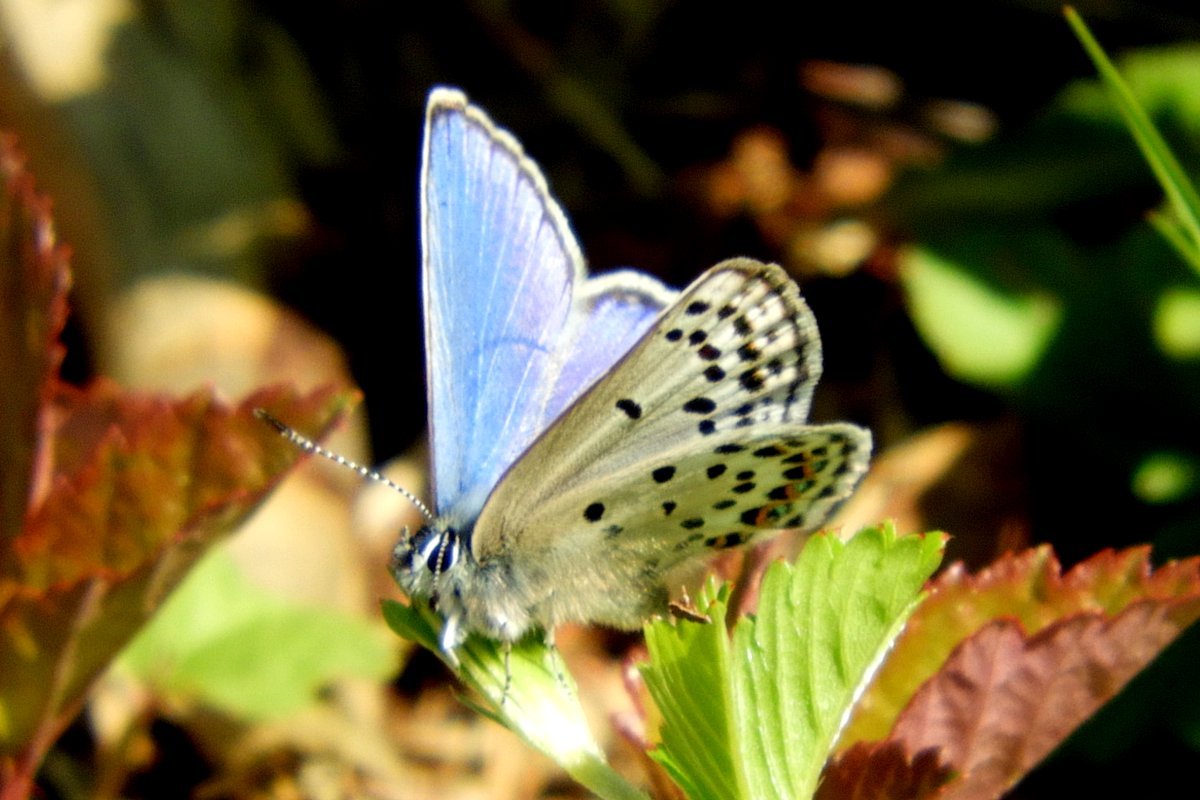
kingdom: Animalia
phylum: Arthropoda
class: Insecta
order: Lepidoptera
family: Lycaenidae
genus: Lycaeides
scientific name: Lycaeides idas
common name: Northern Blue
